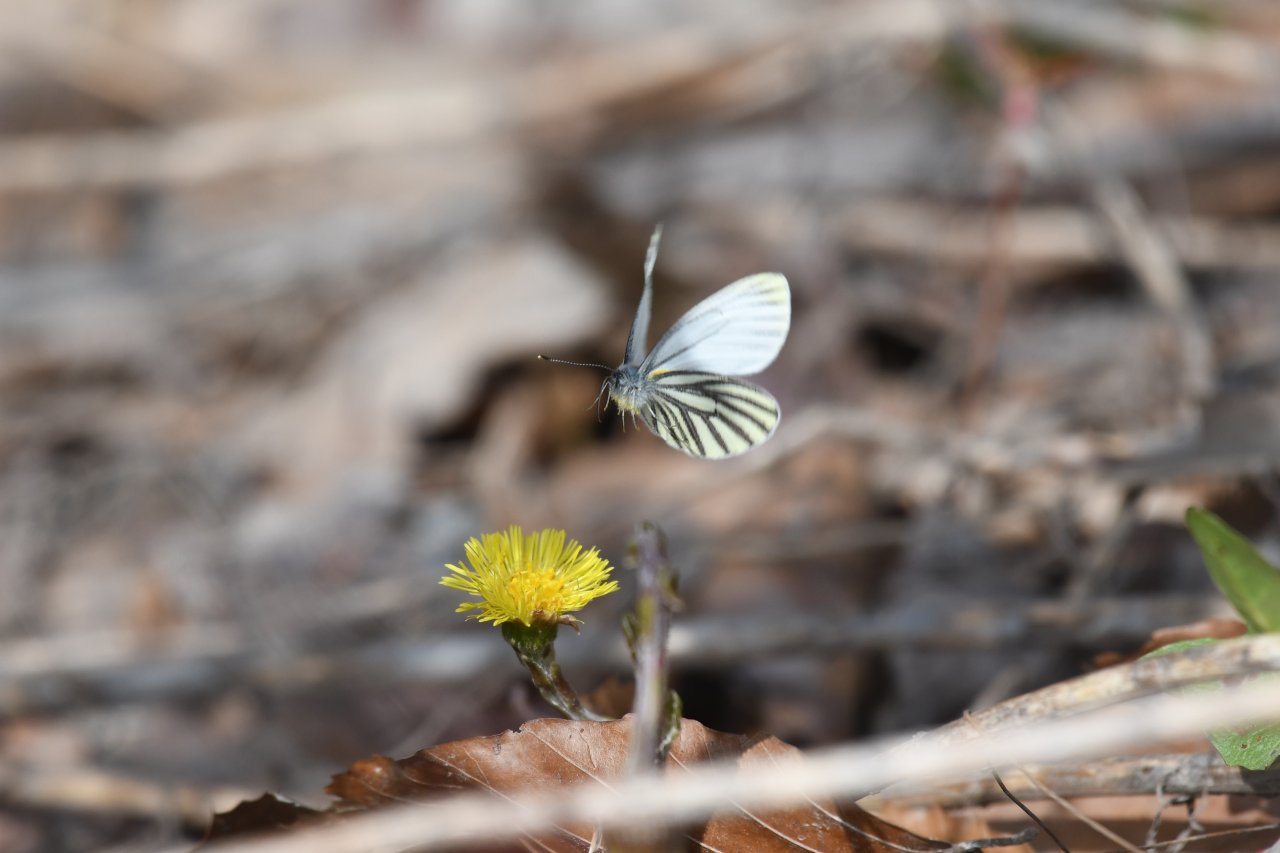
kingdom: Animalia
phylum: Arthropoda
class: Insecta
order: Lepidoptera
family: Pieridae
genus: Pieris
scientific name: Pieris oleracea
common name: Mustard White
